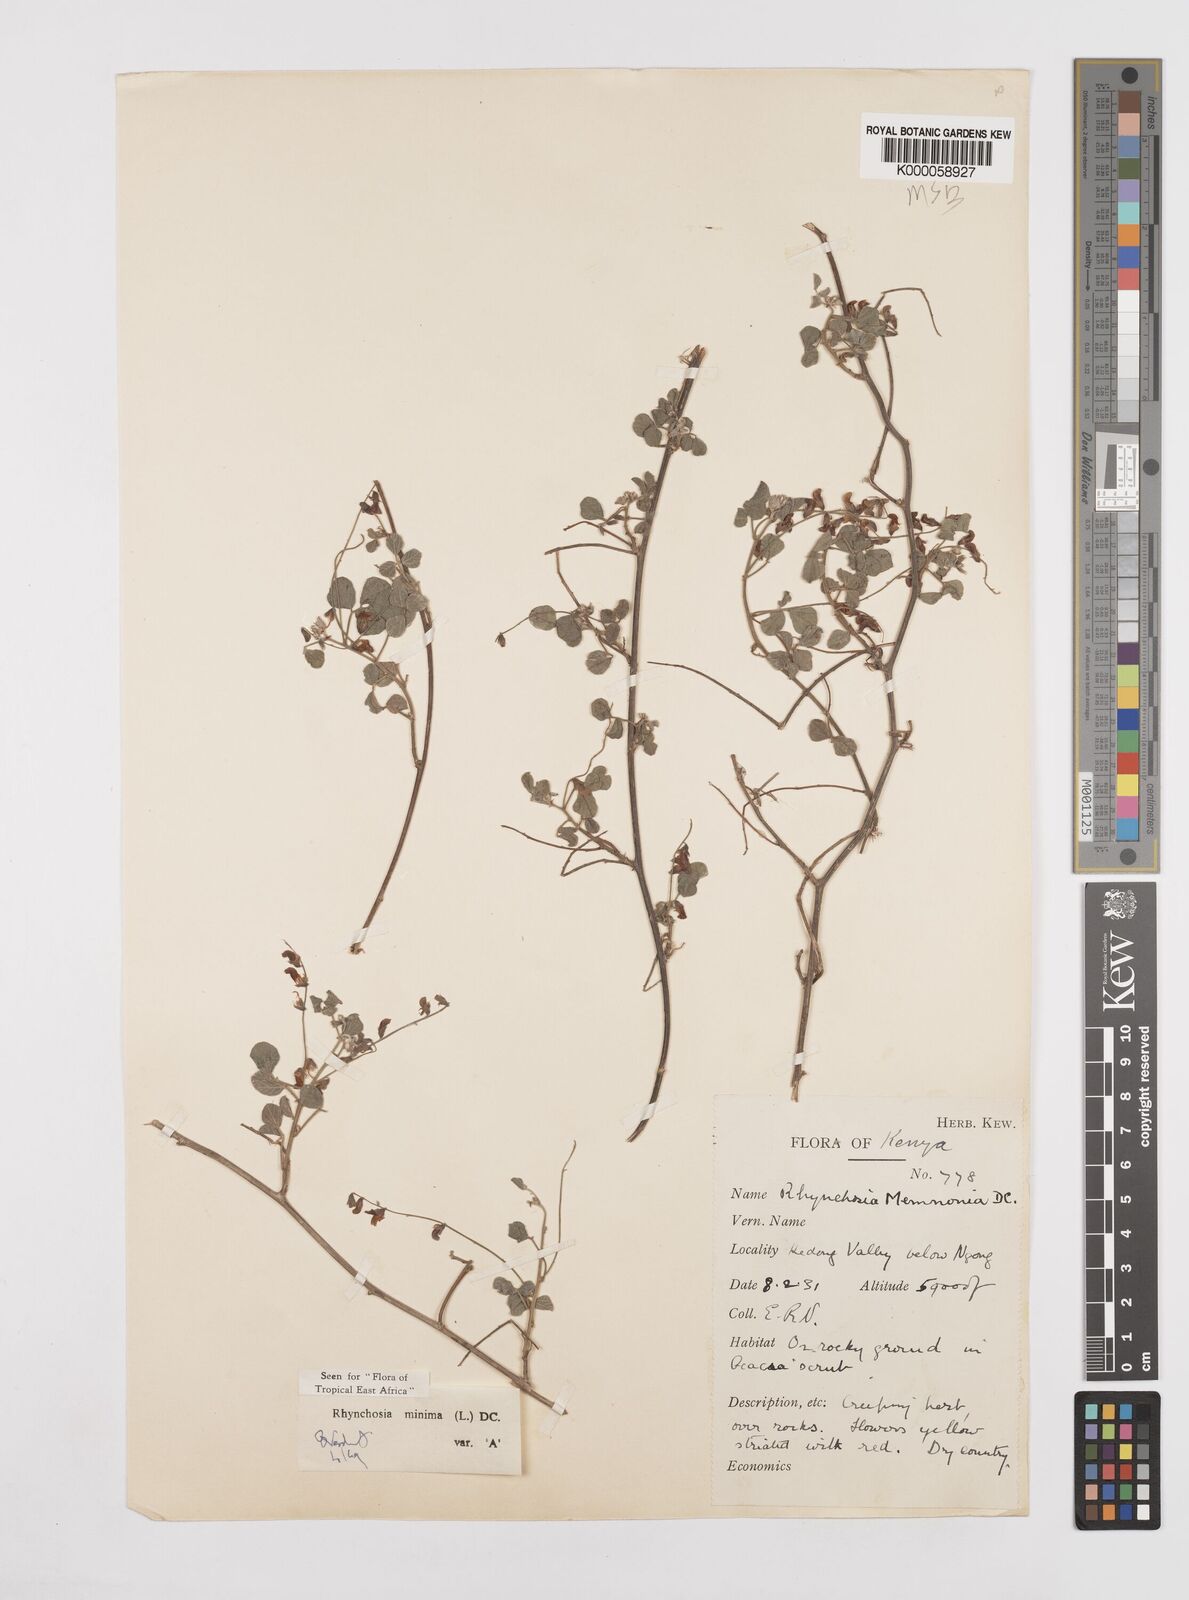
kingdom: Plantae
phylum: Tracheophyta
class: Magnoliopsida
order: Fabales
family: Fabaceae
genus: Rhynchosia
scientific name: Rhynchosia minima
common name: Least snoutbean
